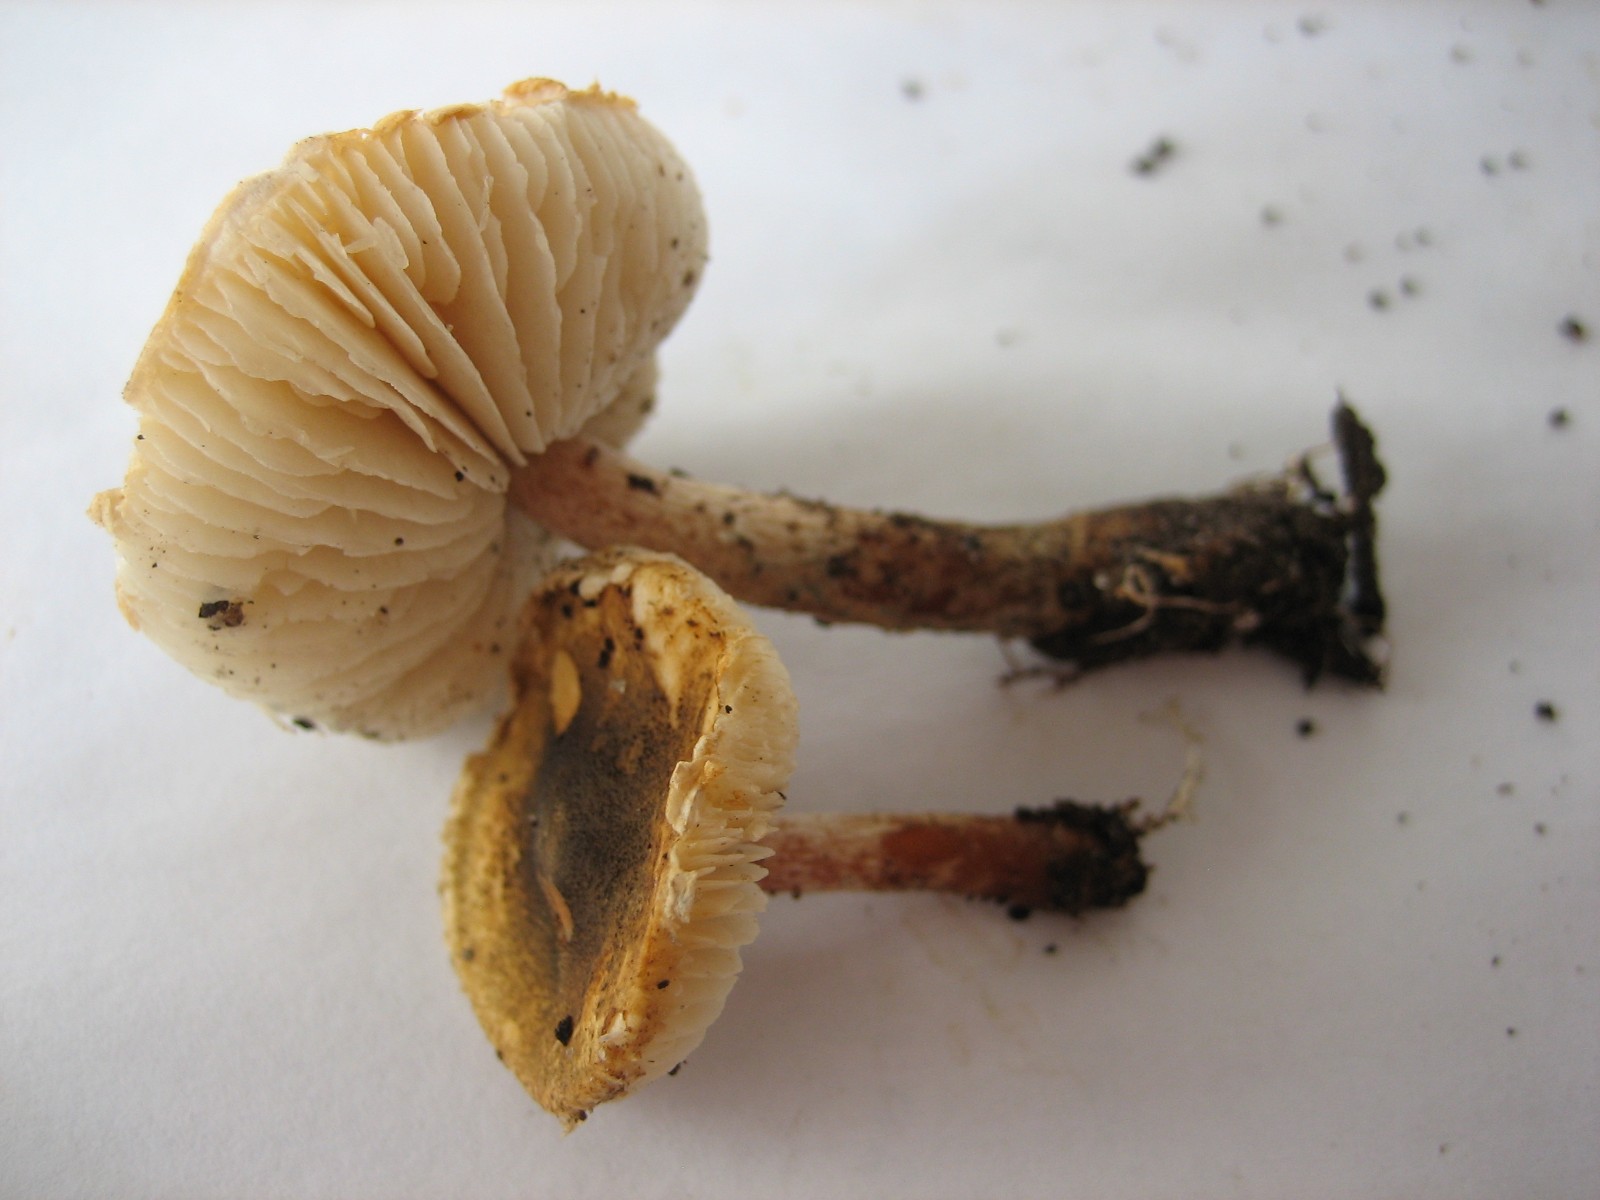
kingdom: Fungi
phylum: Basidiomycota
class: Agaricomycetes
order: Agaricales
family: Agaricaceae
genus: Lepiota
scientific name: Lepiota grangei
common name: grønskællet parasolhat
